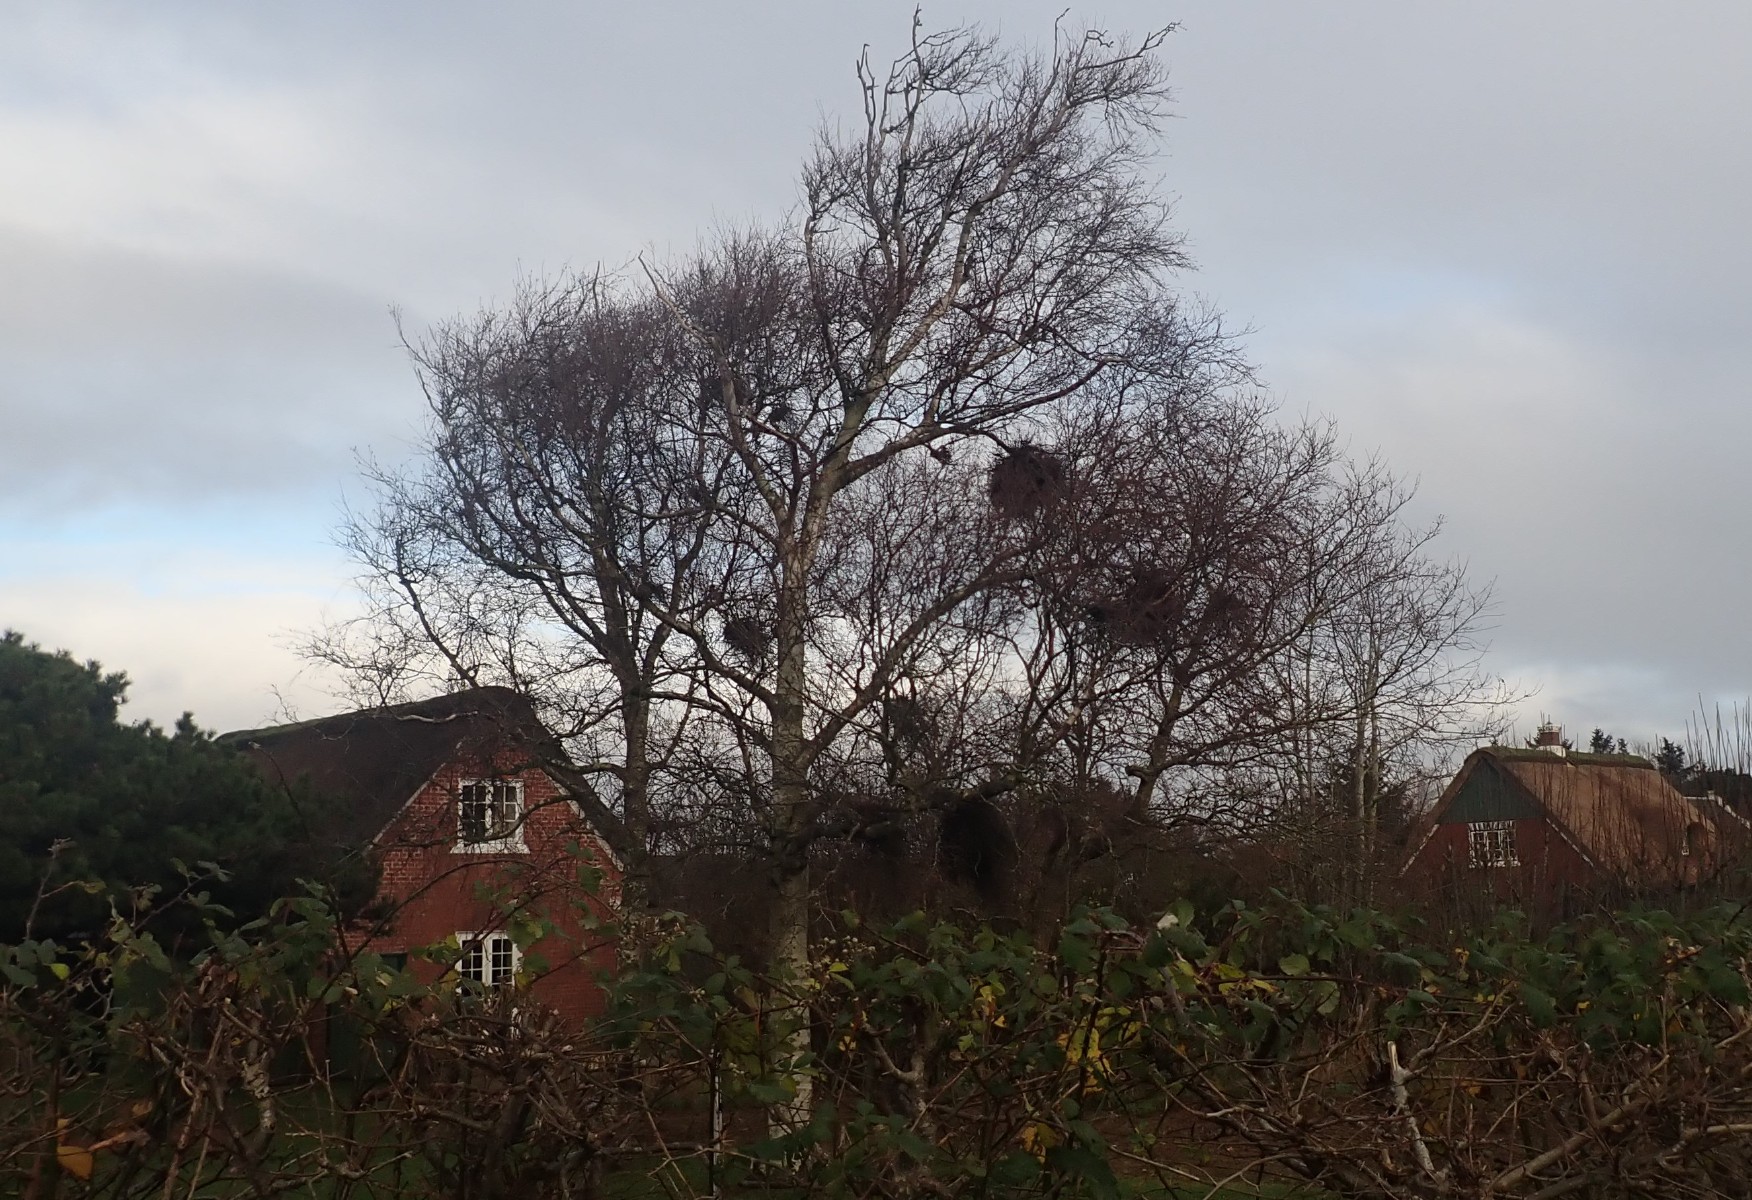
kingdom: Fungi
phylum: Ascomycota
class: Taphrinomycetes
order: Taphrinales
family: Taphrinaceae
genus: Taphrina
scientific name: Taphrina betulina
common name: hekse-sækdug
